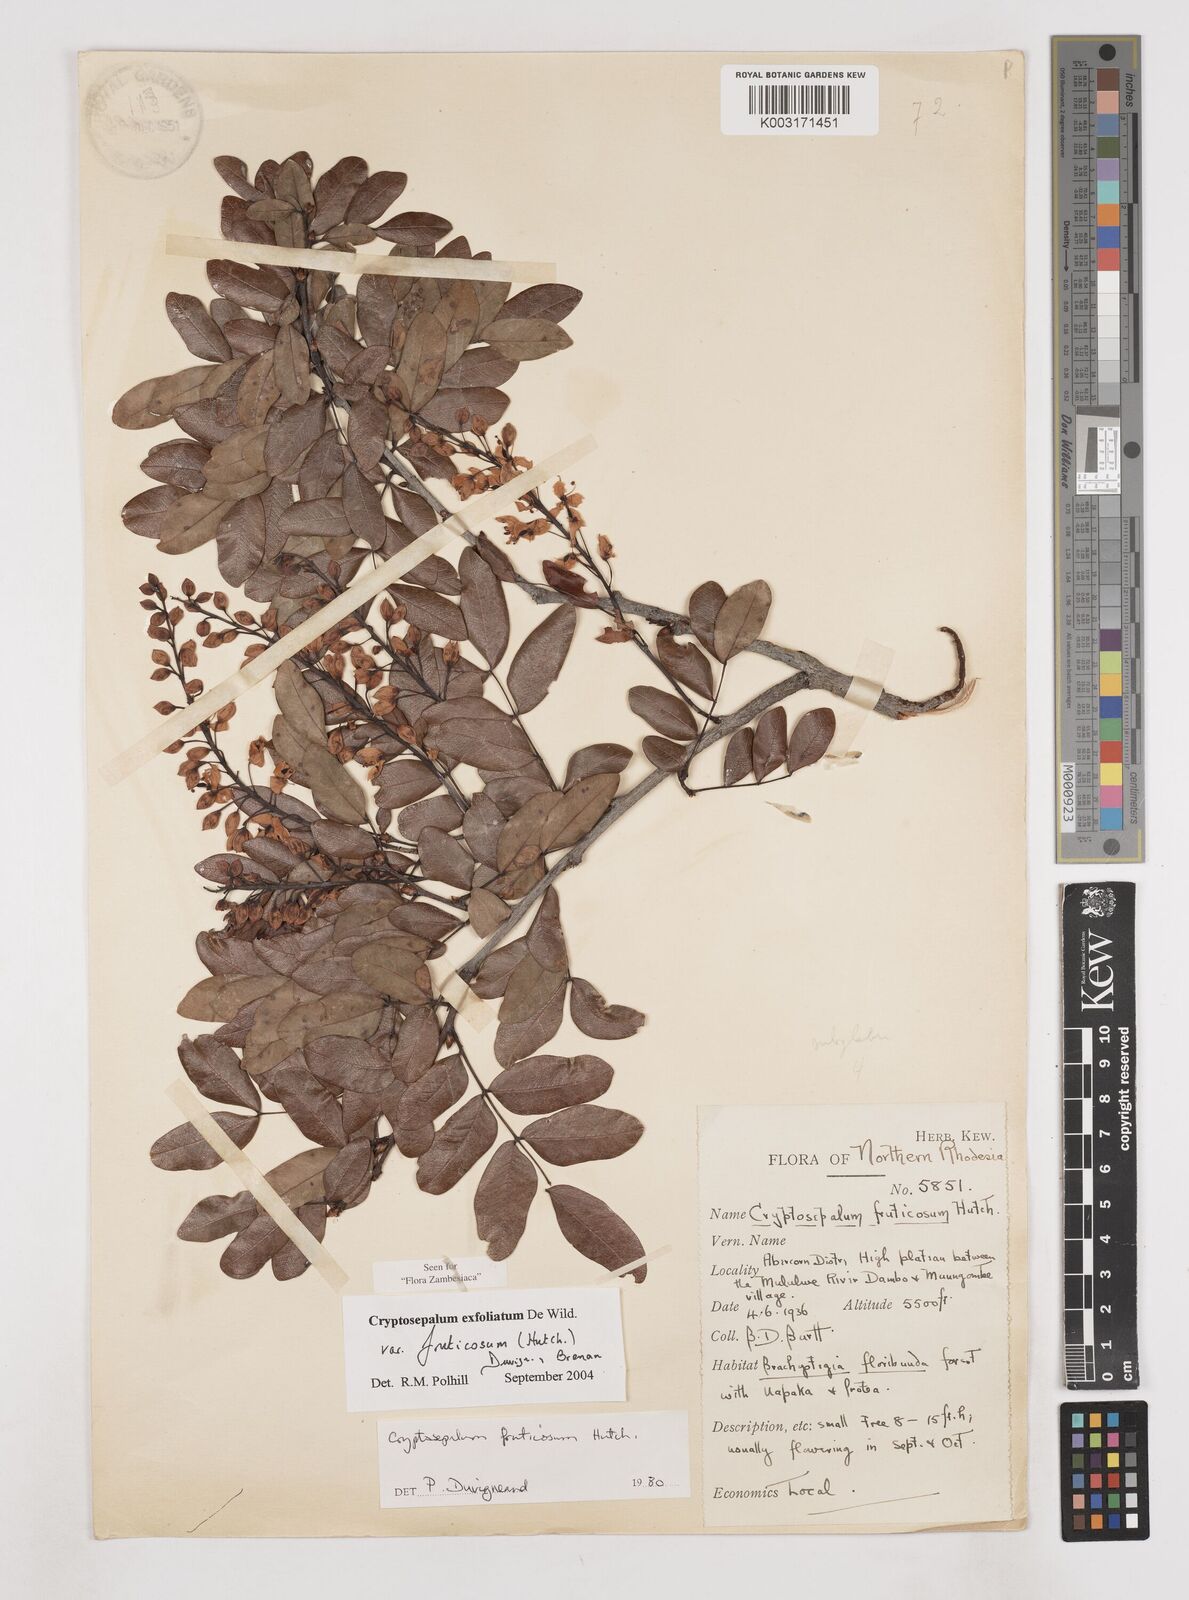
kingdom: Plantae
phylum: Tracheophyta
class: Magnoliopsida
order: Fabales
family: Fabaceae
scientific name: Fabaceae
